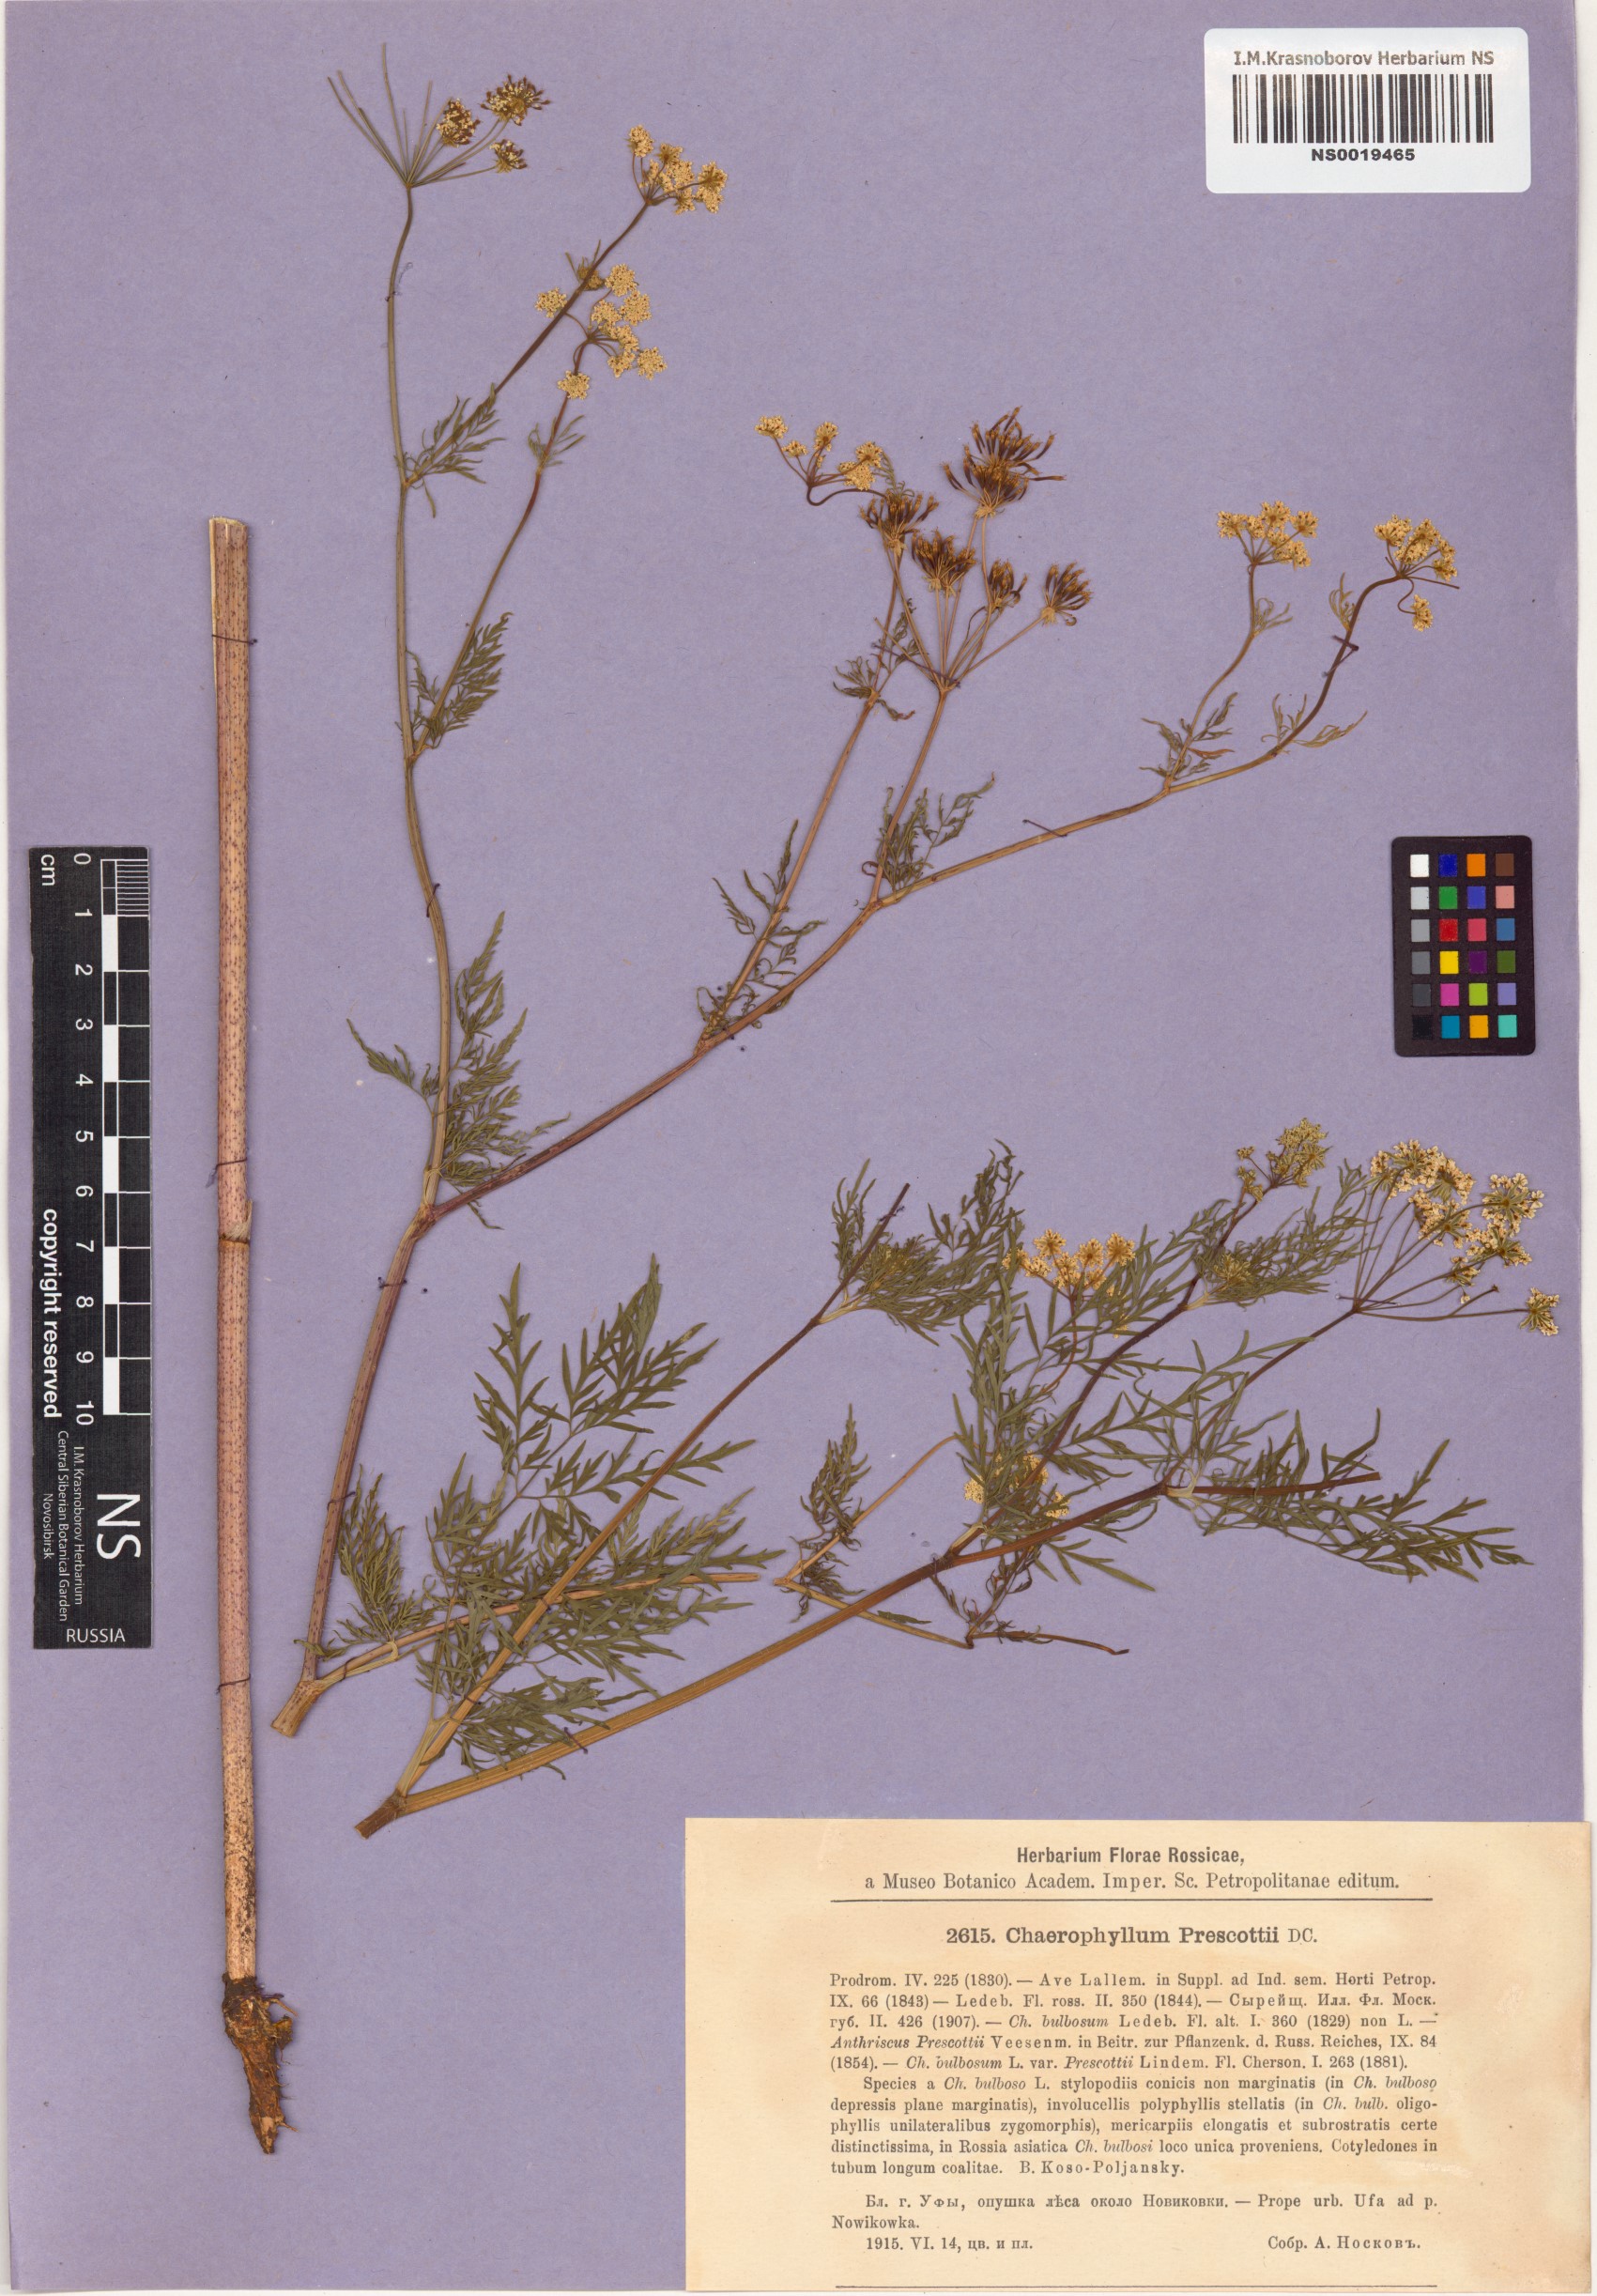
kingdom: Plantae
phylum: Tracheophyta
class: Magnoliopsida
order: Apiales
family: Apiaceae
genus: Chaerophyllum
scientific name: Chaerophyllum prescottii
